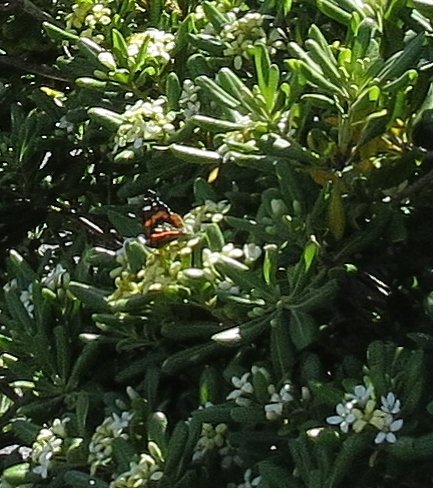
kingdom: Animalia
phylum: Arthropoda
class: Insecta
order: Lepidoptera
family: Nymphalidae
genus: Vanessa
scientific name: Vanessa atalanta
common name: Red Admiral
